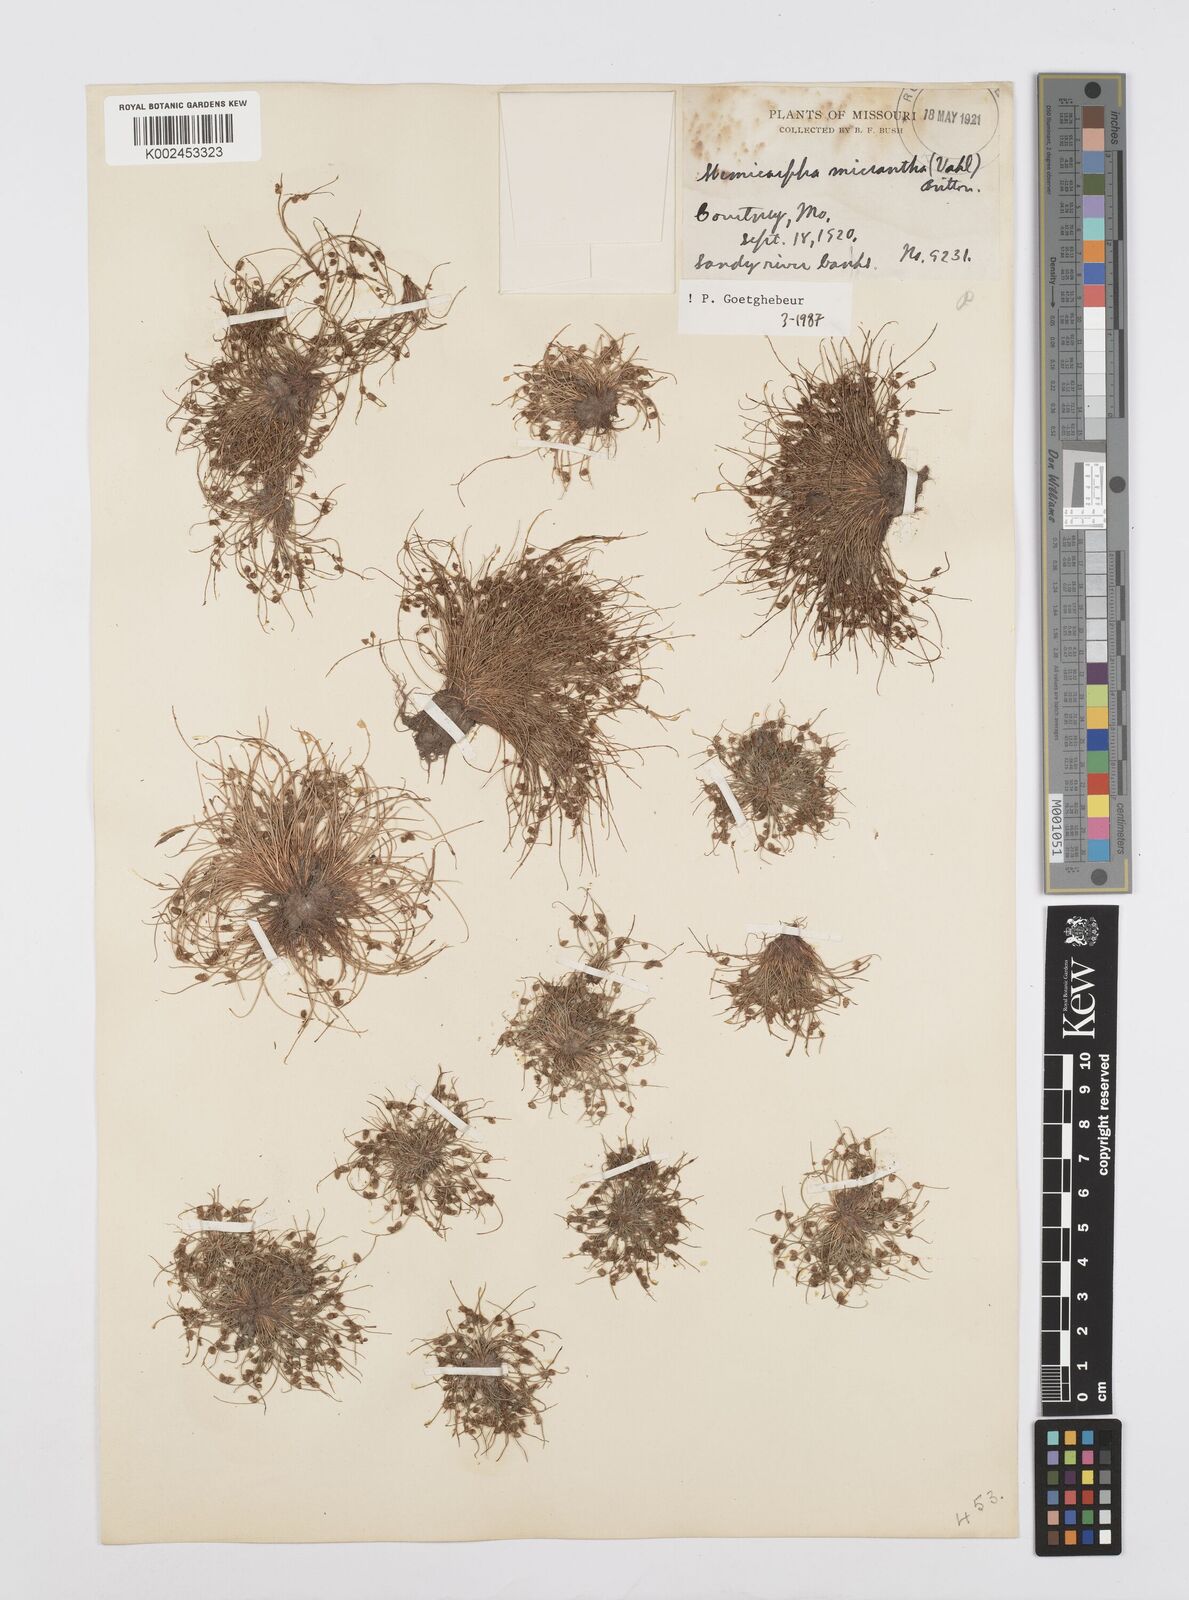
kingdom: Plantae
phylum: Tracheophyta
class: Liliopsida
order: Poales
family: Cyperaceae
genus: Cyperus
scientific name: Cyperus dentatus
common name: Dentate umbrella sedge
